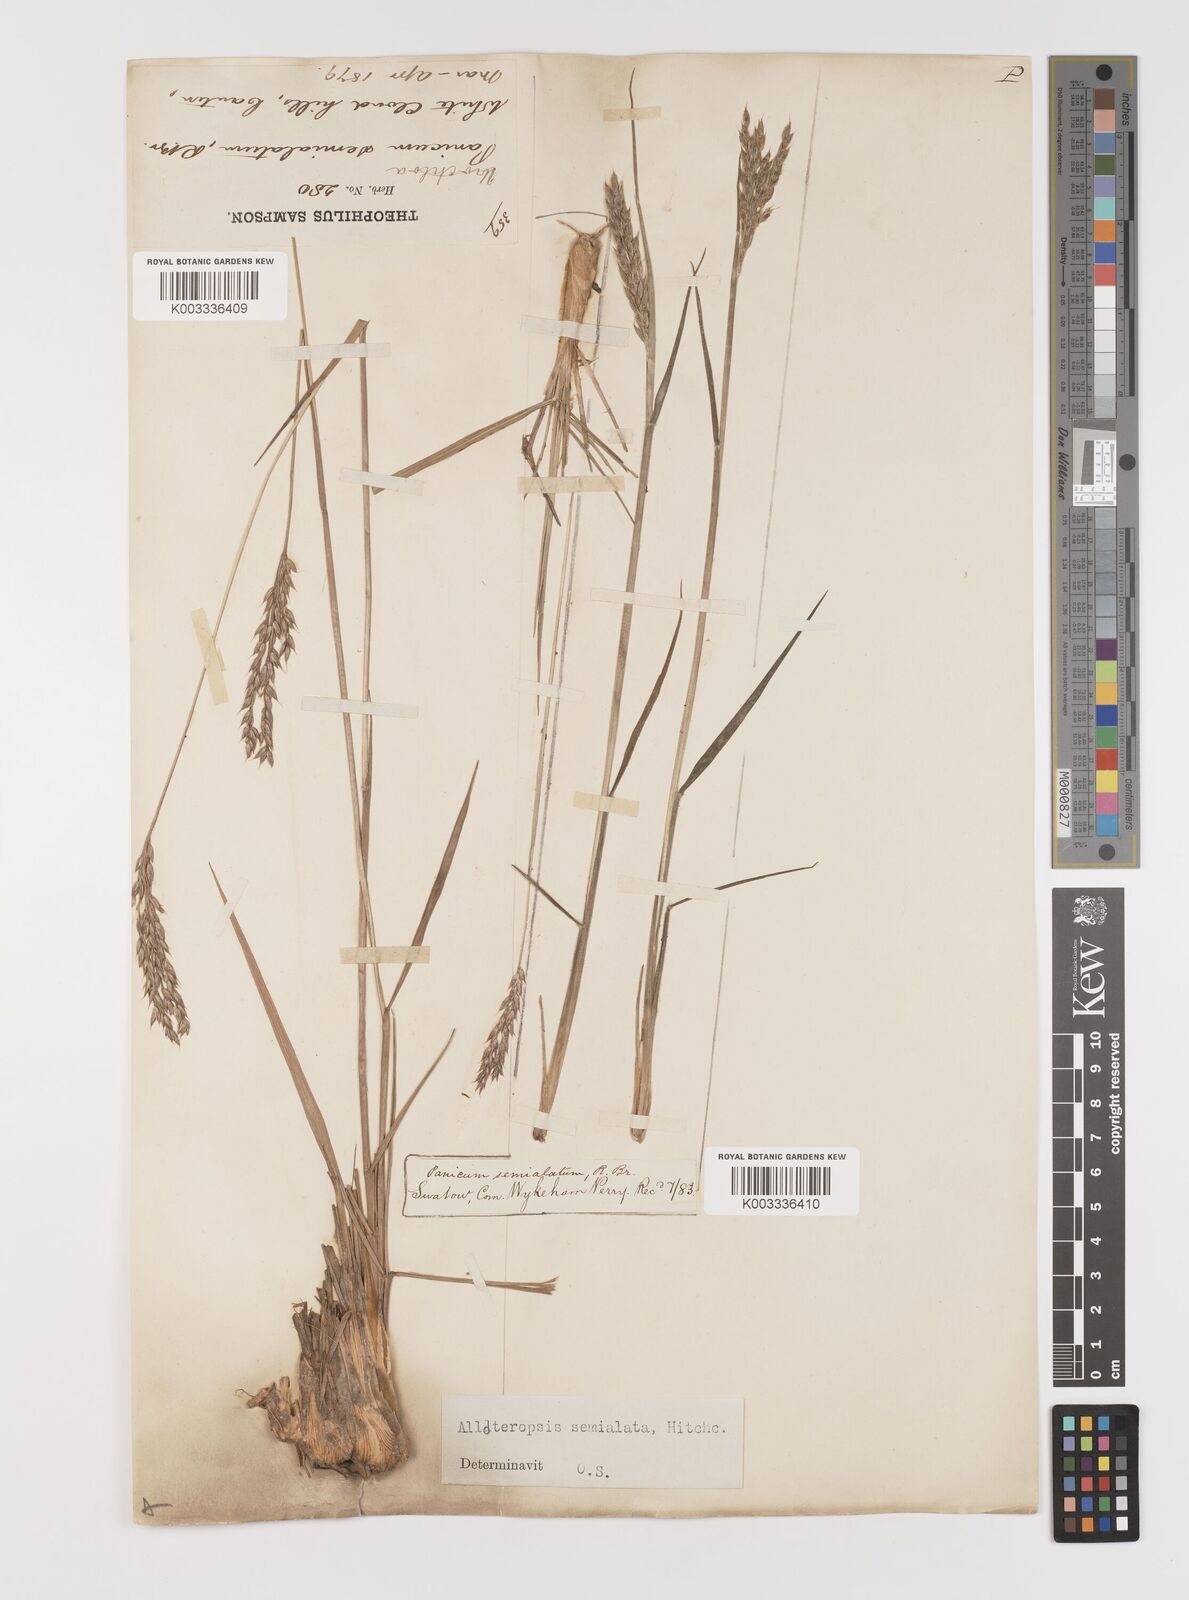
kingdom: Plantae
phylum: Tracheophyta
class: Liliopsida
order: Poales
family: Poaceae
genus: Alloteropsis
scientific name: Alloteropsis semialata
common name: Cockatoo grass
